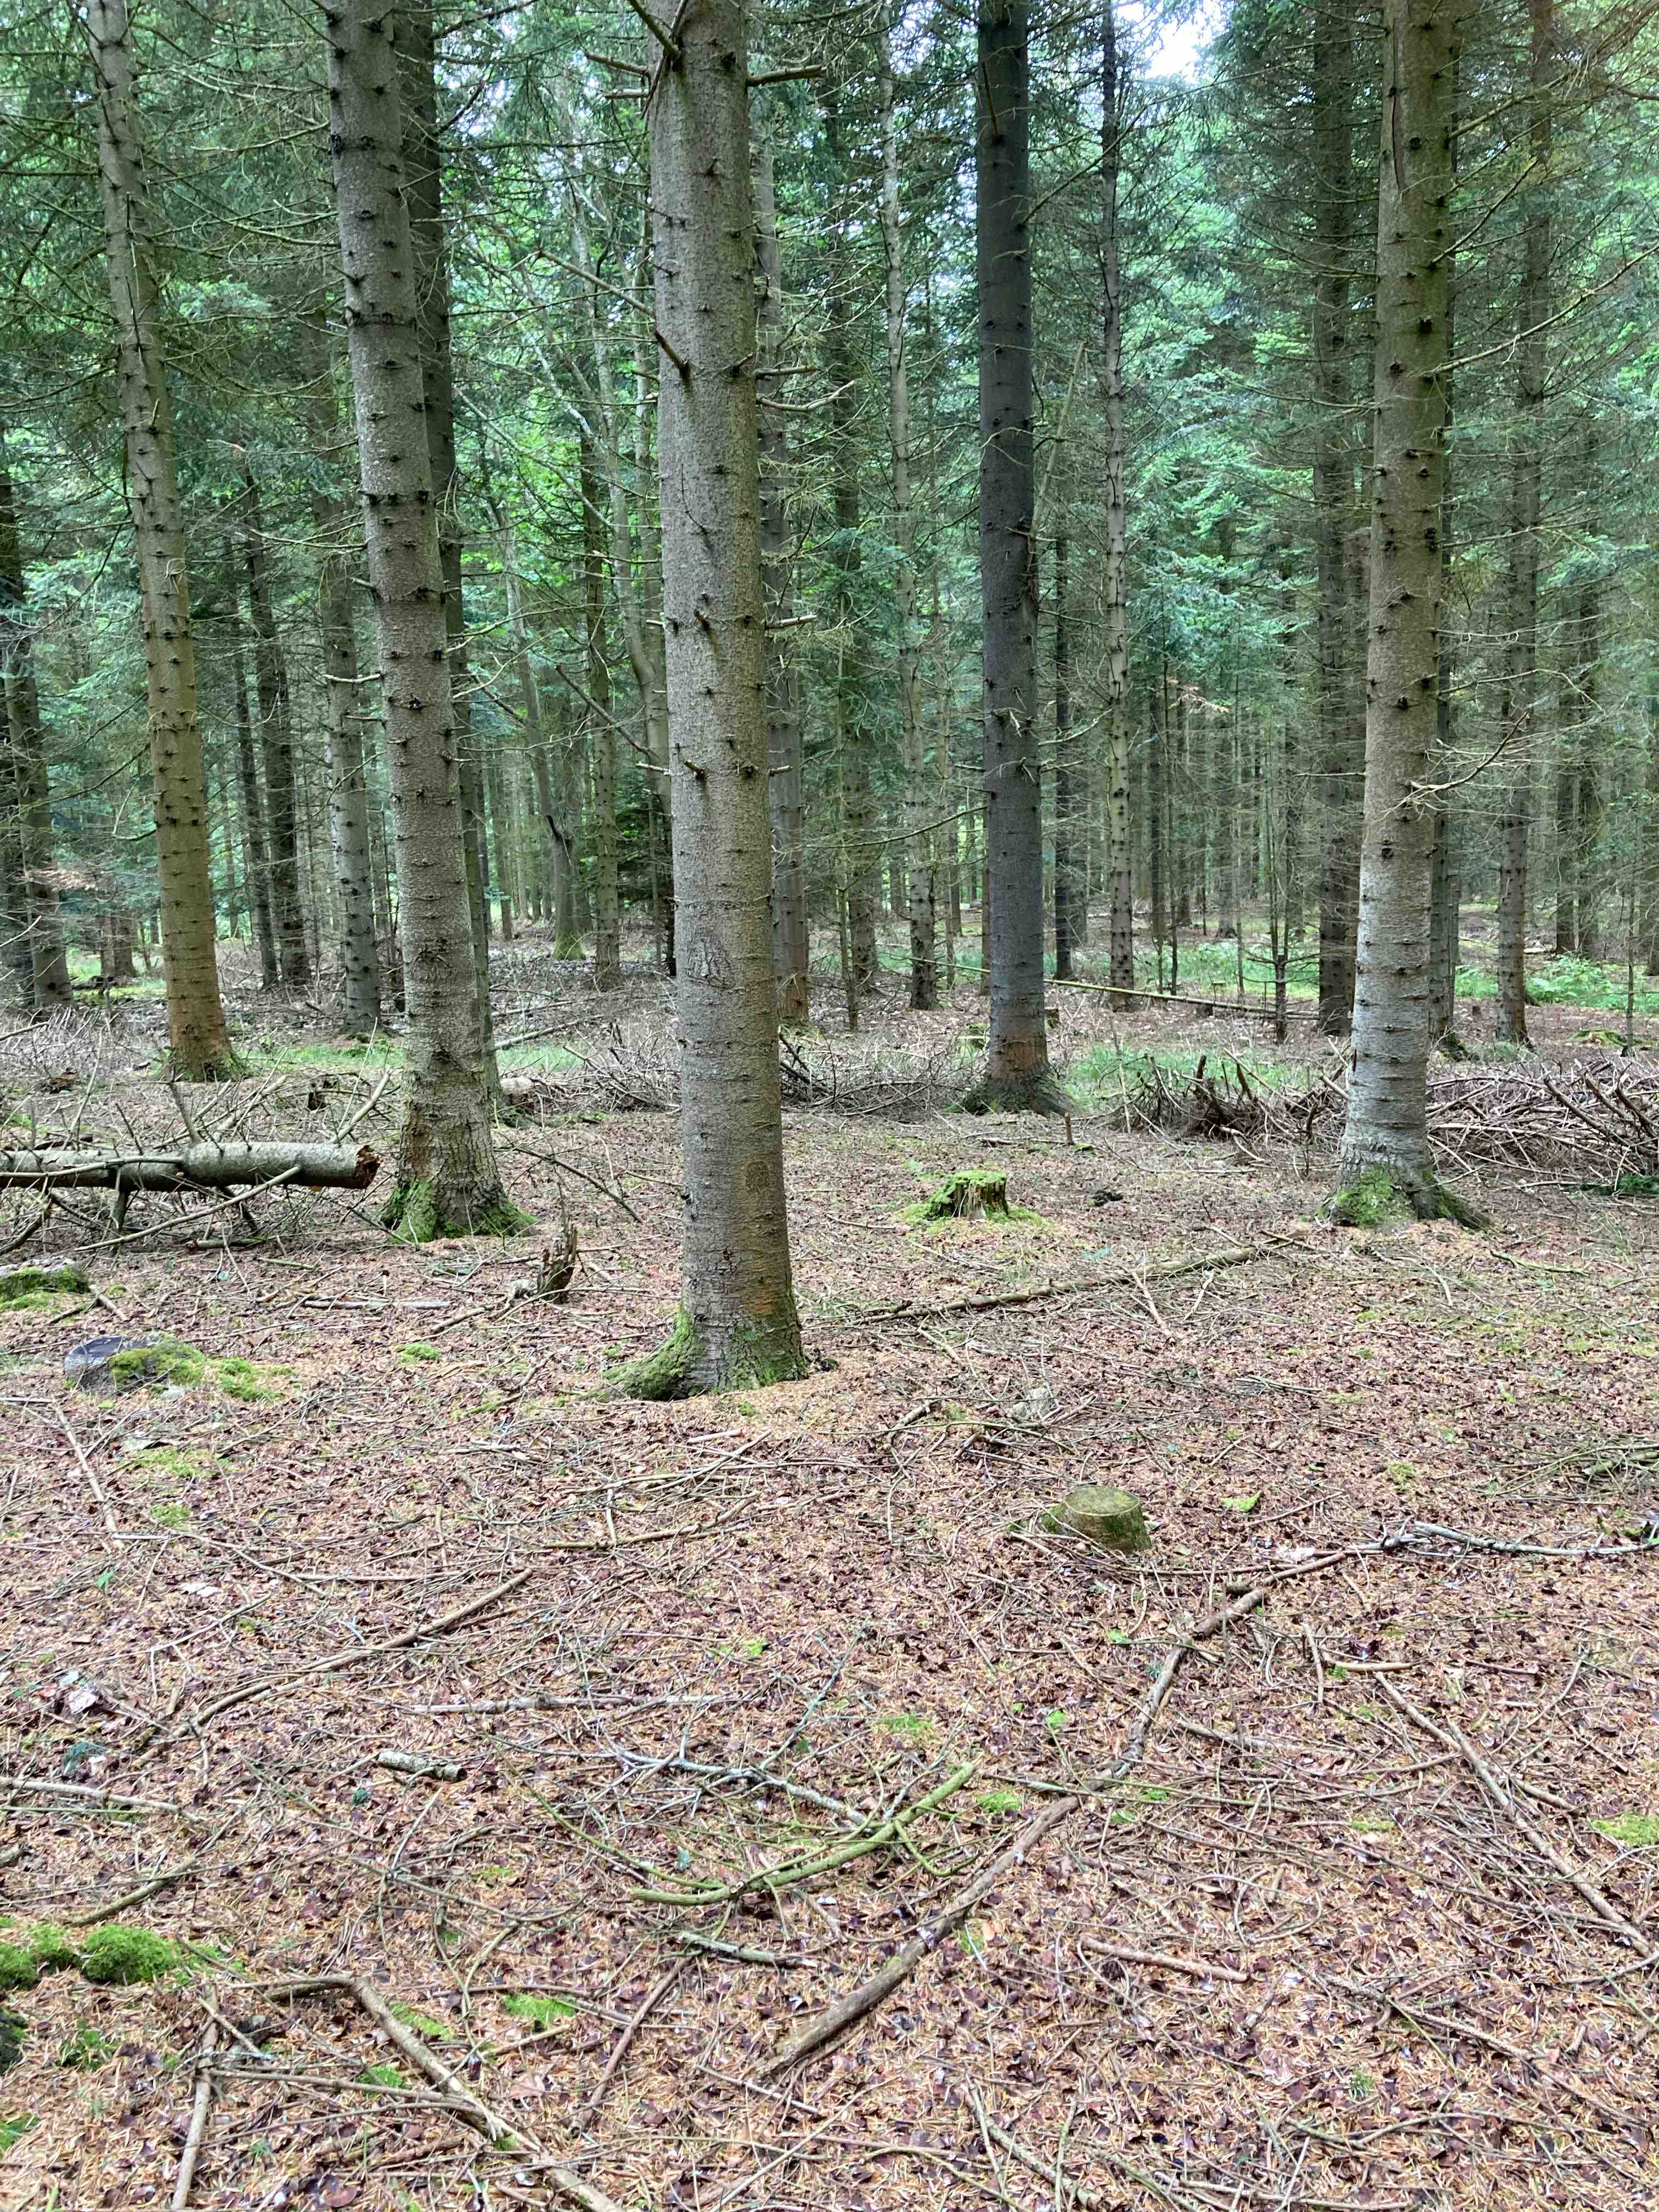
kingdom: Fungi
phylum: Basidiomycota
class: Agaricomycetes
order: Boletales
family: Boletaceae
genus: Butyriboletus
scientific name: Butyriboletus
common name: smørrørhat
